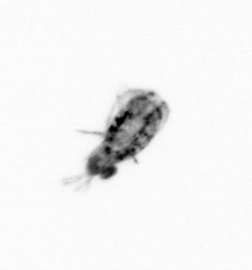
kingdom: Animalia
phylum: Arthropoda
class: Copepoda
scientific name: Copepoda
